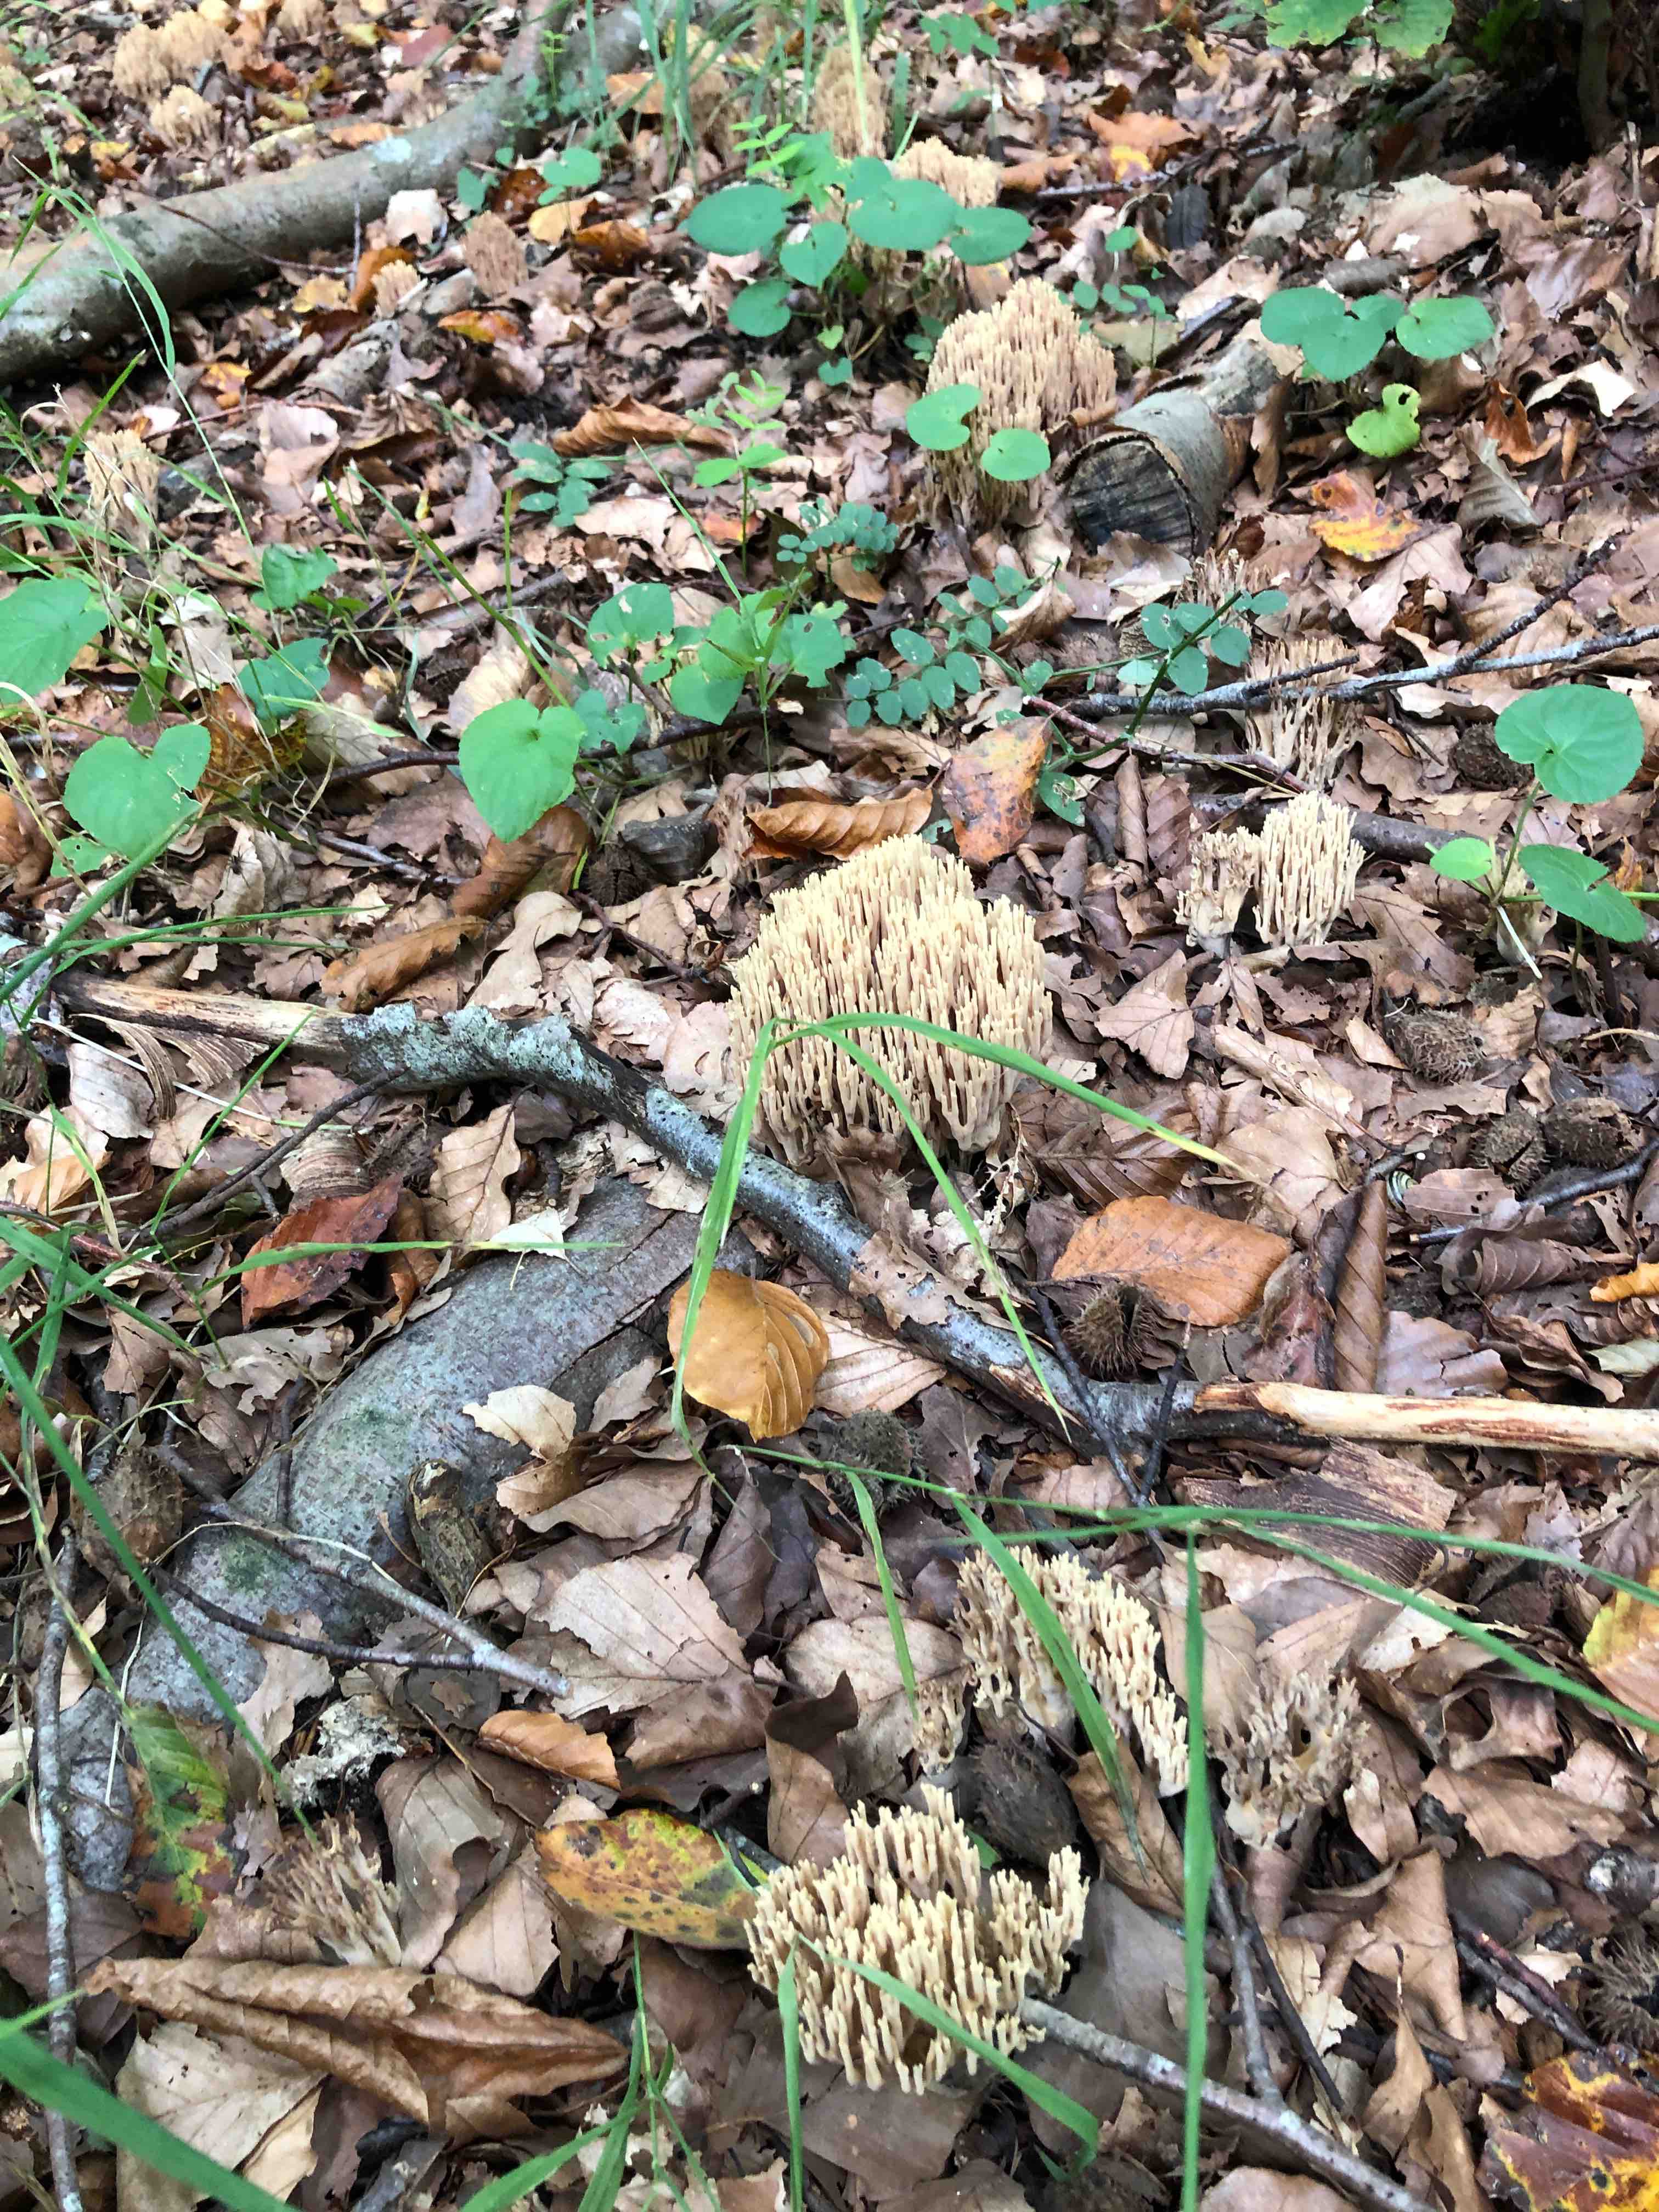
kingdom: Fungi
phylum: Basidiomycota
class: Agaricomycetes
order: Gomphales
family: Gomphaceae
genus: Ramaria
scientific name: Ramaria stricta
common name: rank koralsvamp
